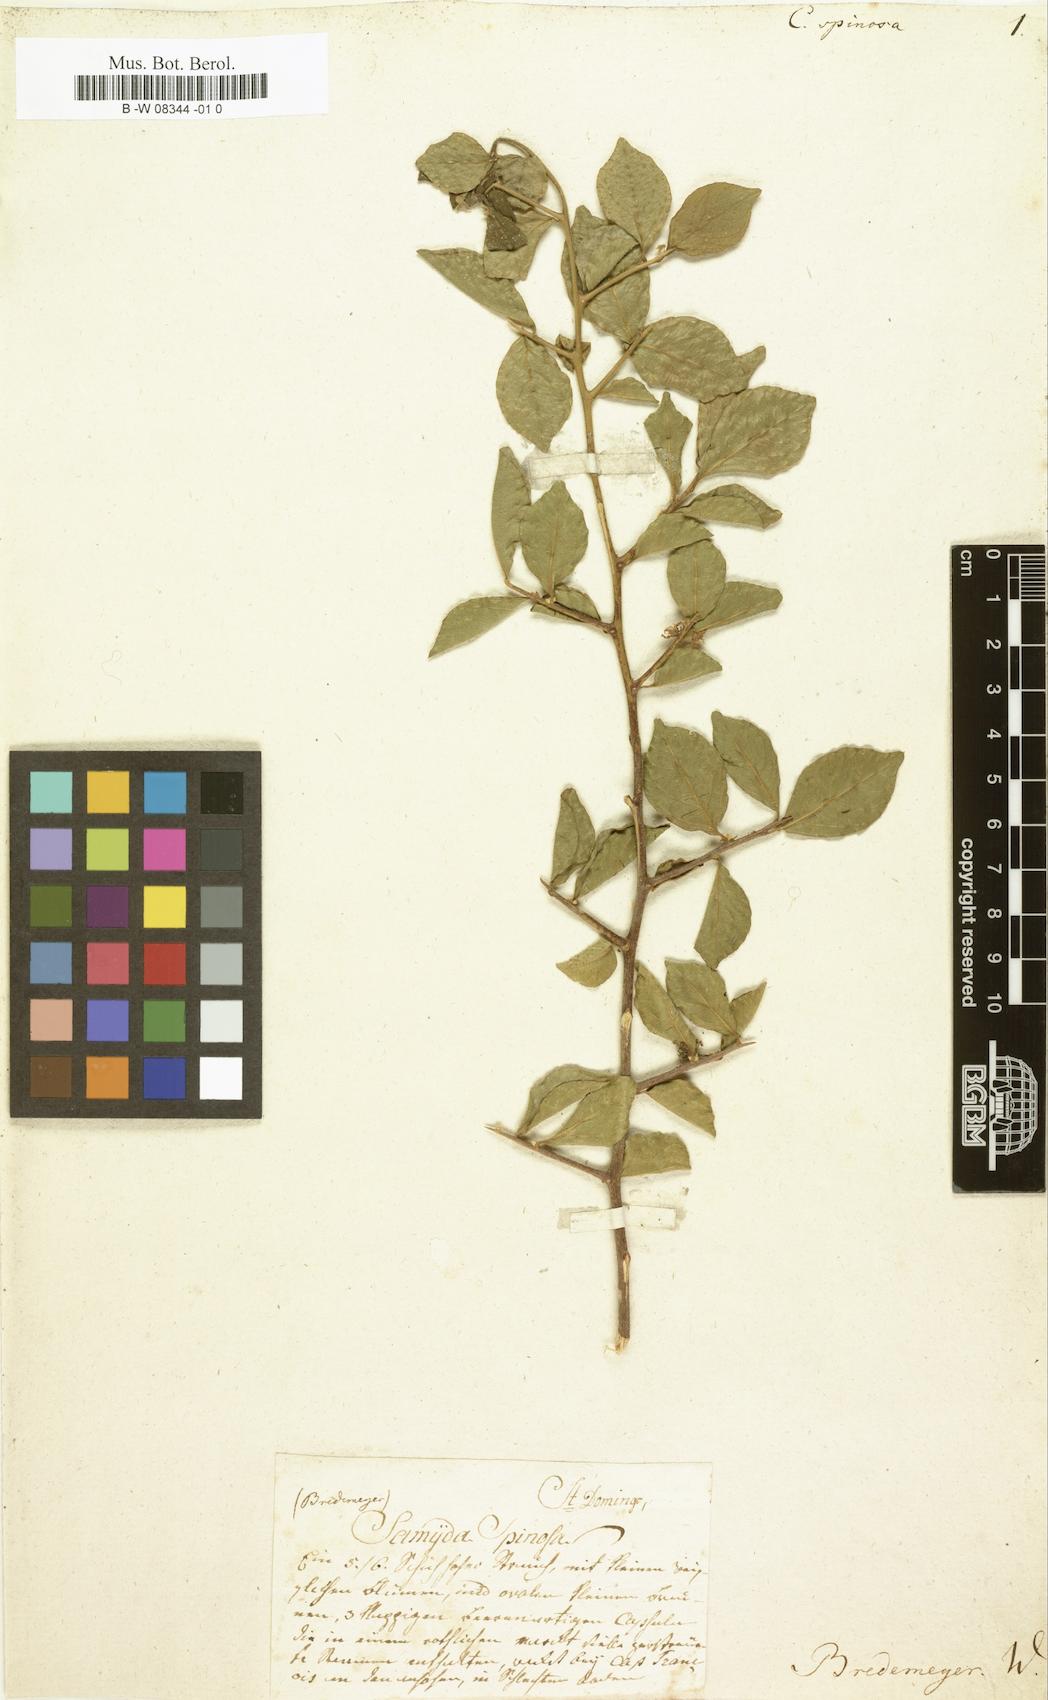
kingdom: Plantae
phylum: Tracheophyta
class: Magnoliopsida
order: Malpighiales
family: Salicaceae
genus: Casearia
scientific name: Casearia aculeata
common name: Cockspur
